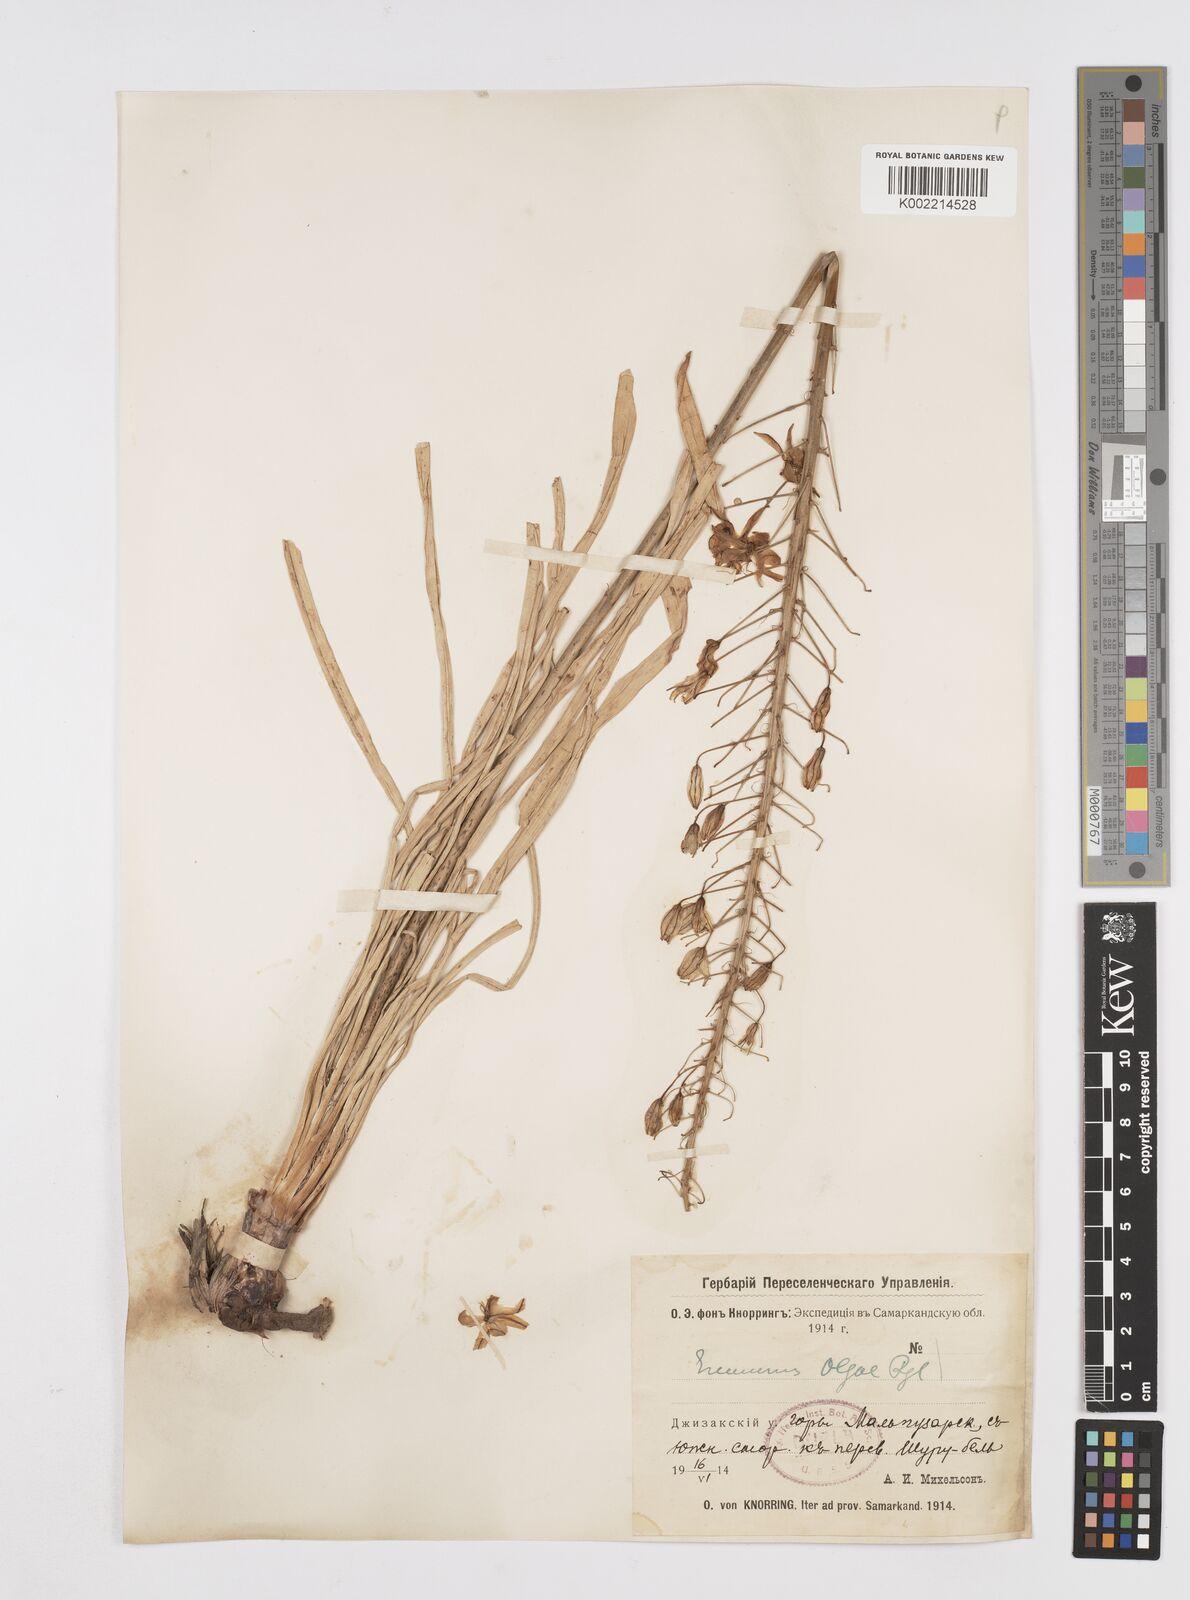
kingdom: Plantae
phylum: Tracheophyta
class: Liliopsida
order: Asparagales
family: Asphodelaceae
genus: Eremurus
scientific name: Eremurus olgae
